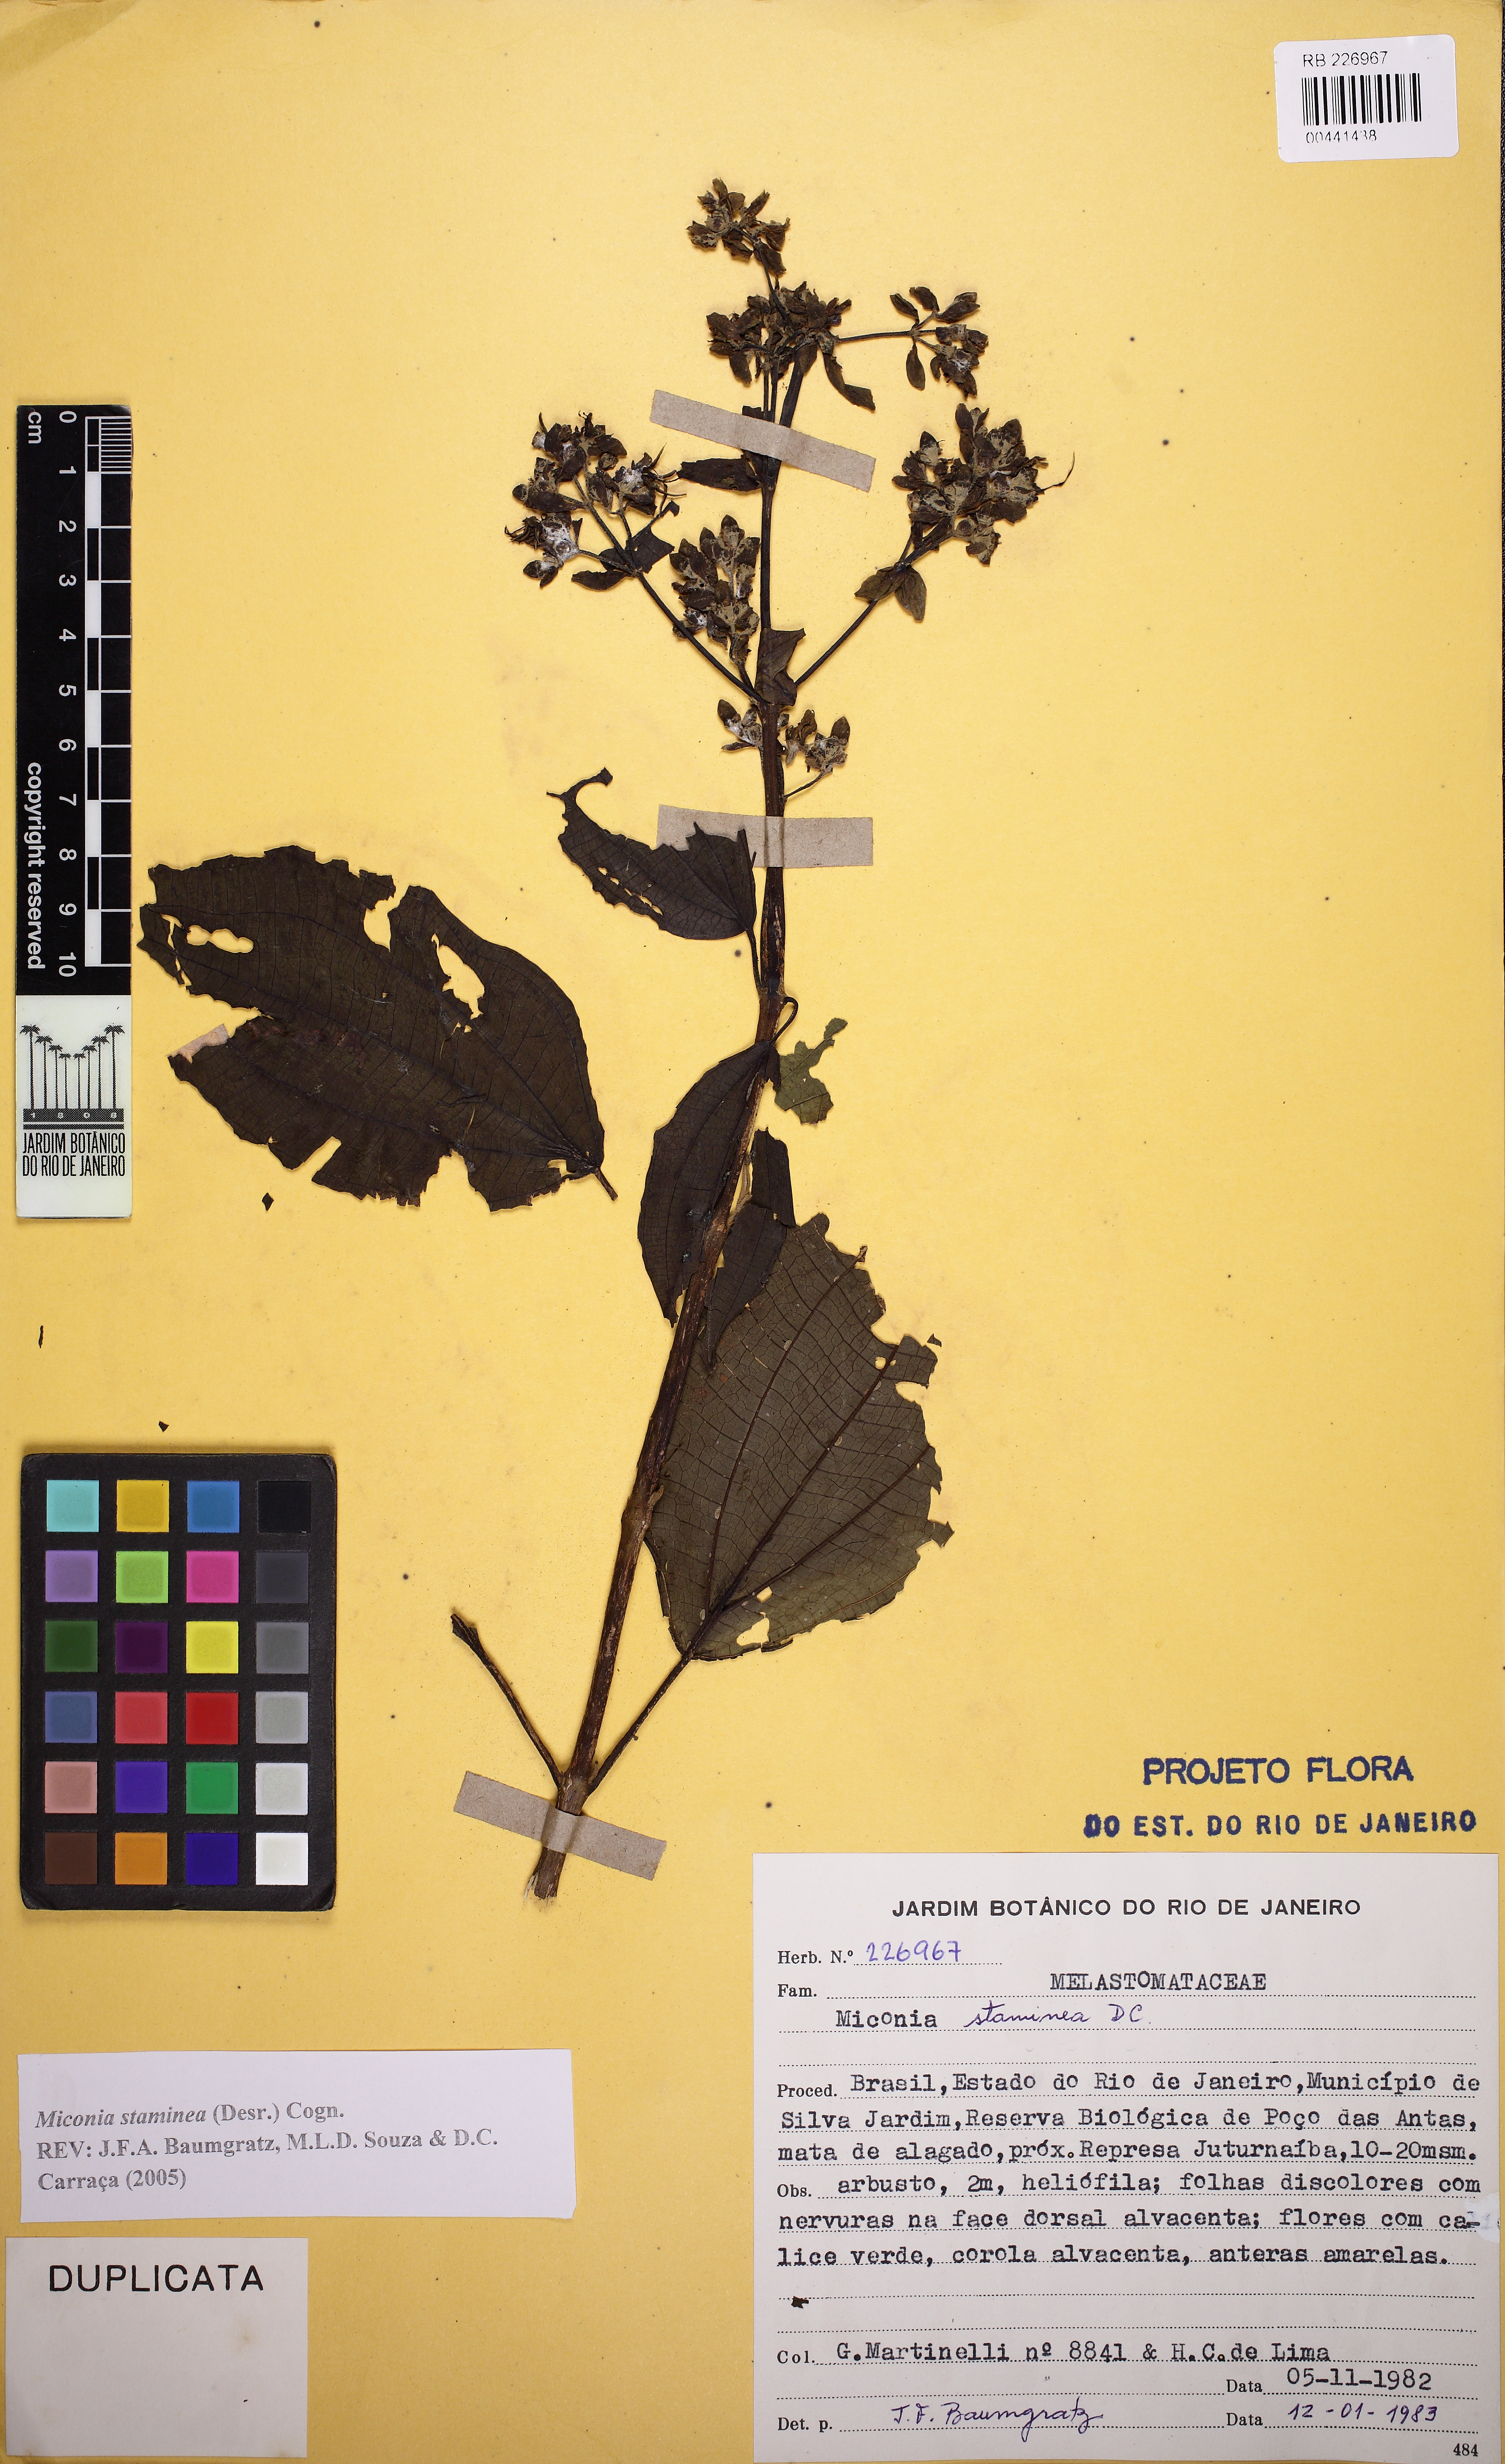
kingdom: Plantae
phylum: Tracheophyta
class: Magnoliopsida
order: Myrtales
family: Melastomataceae
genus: Miconia
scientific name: Miconia staminea
